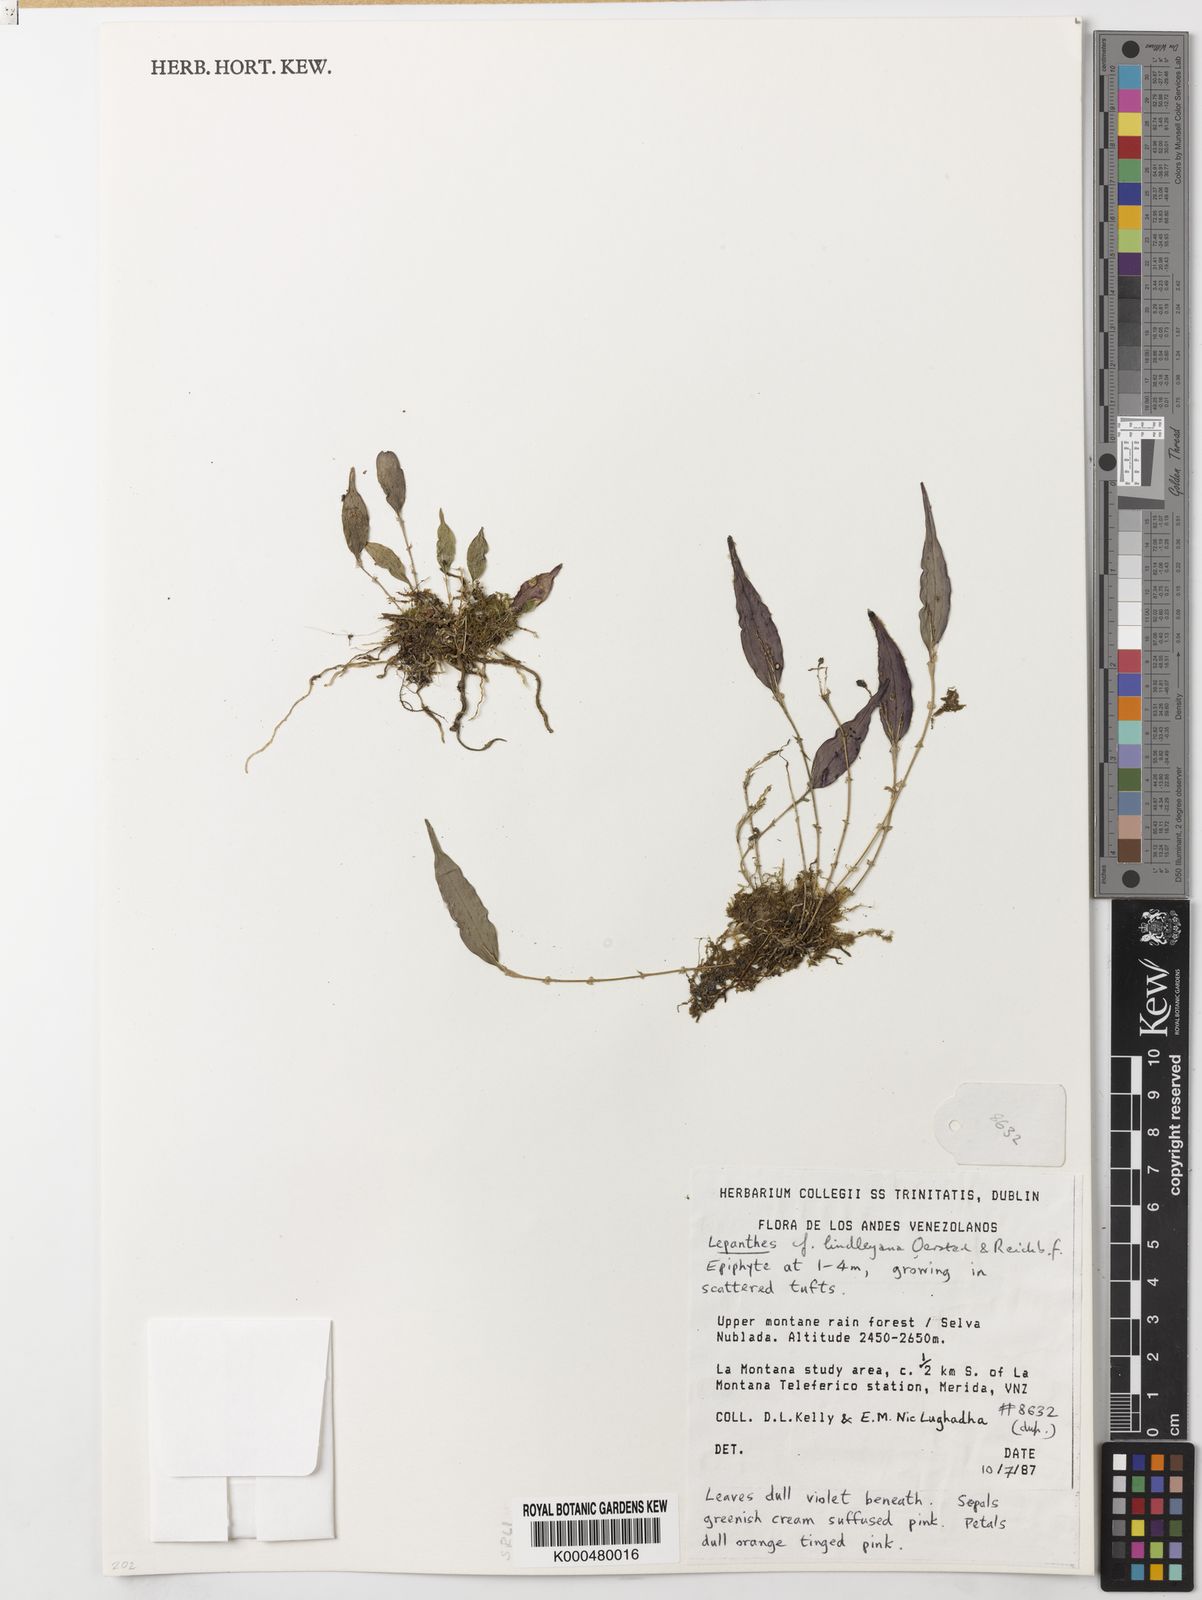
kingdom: Plantae
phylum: Tracheophyta
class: Liliopsida
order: Asparagales
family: Orchidaceae
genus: Lepanthes
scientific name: Lepanthes lindleyana
